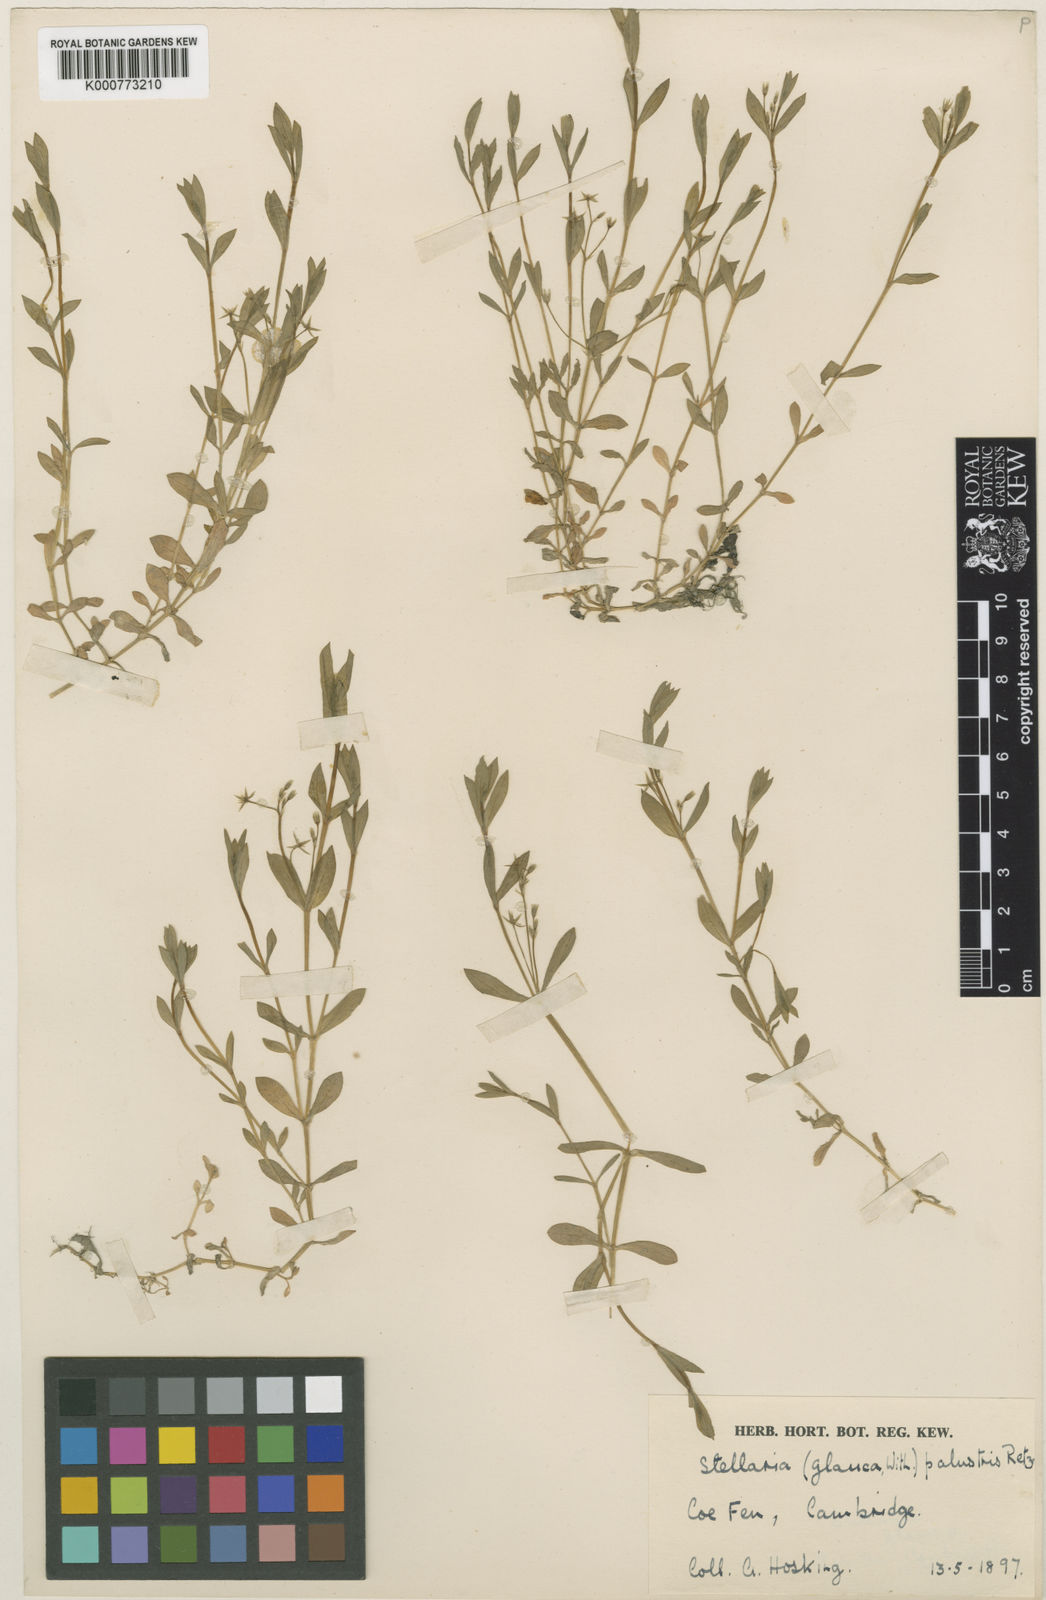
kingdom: Plantae
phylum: Tracheophyta
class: Magnoliopsida
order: Caryophyllales
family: Caryophyllaceae
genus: Stellaria
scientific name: Stellaria
